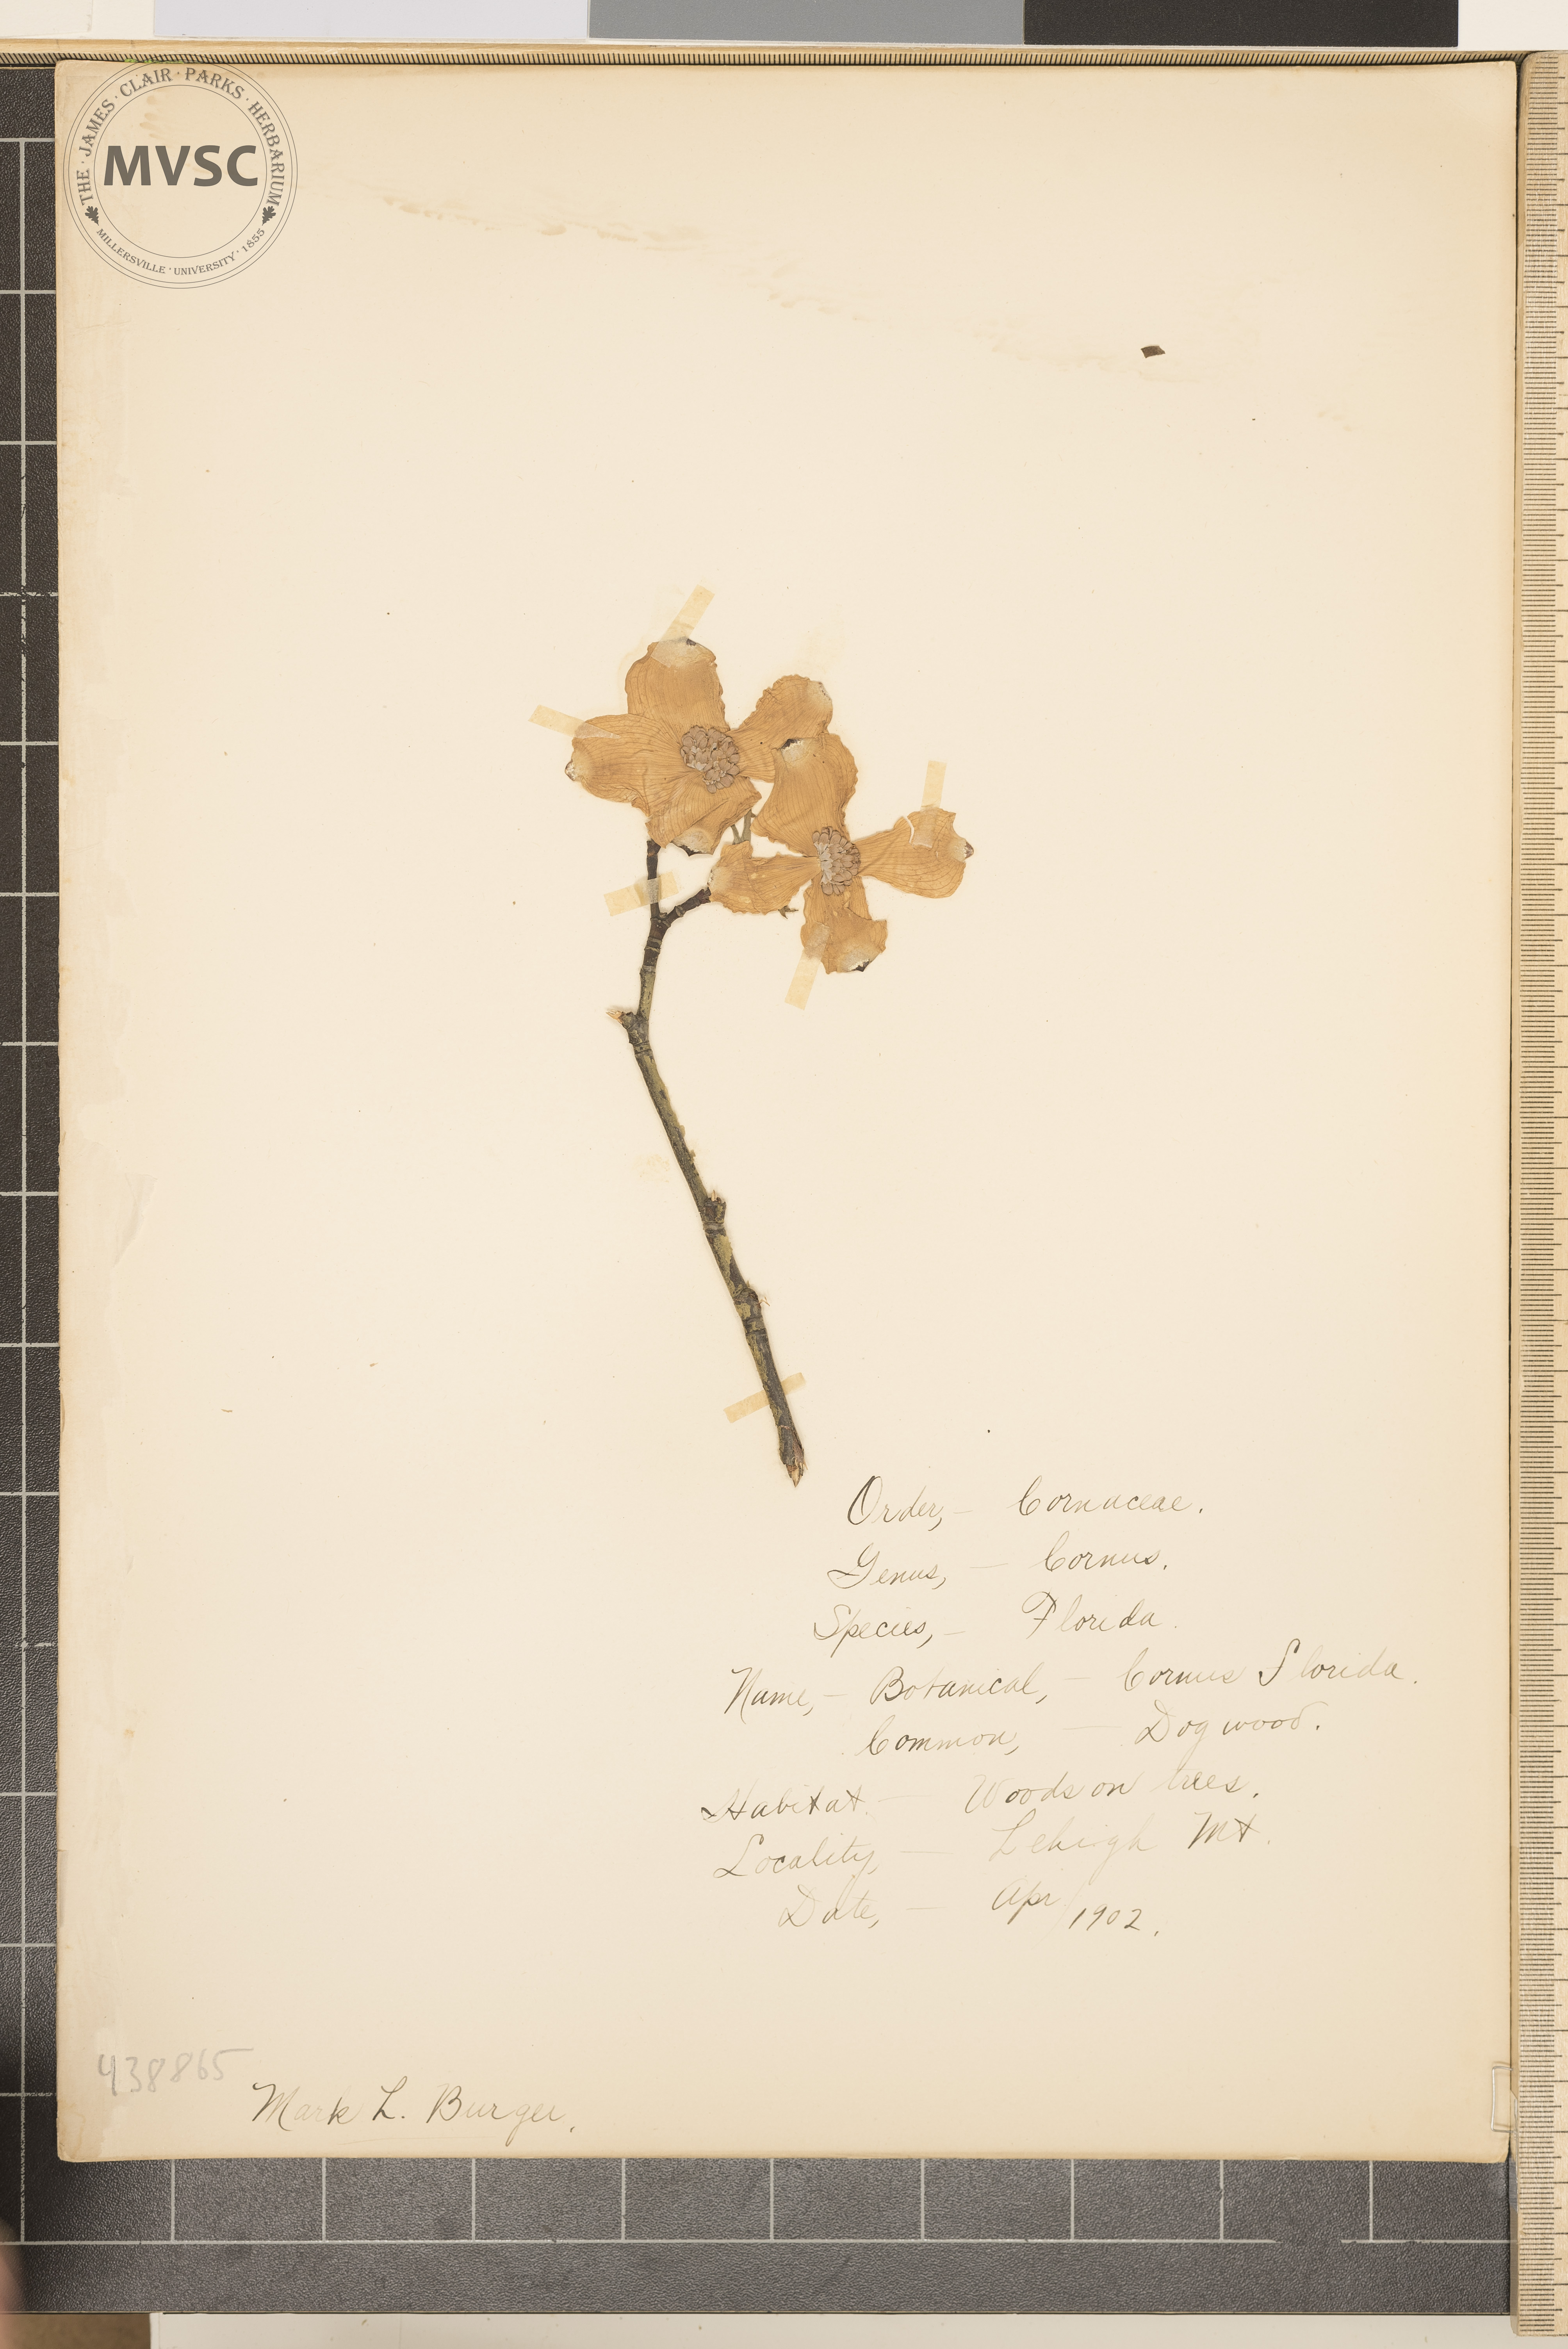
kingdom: Plantae
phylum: Tracheophyta
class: Magnoliopsida
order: Cornales
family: Cornaceae
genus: Cornus
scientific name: Cornus florida
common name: Dogwood
